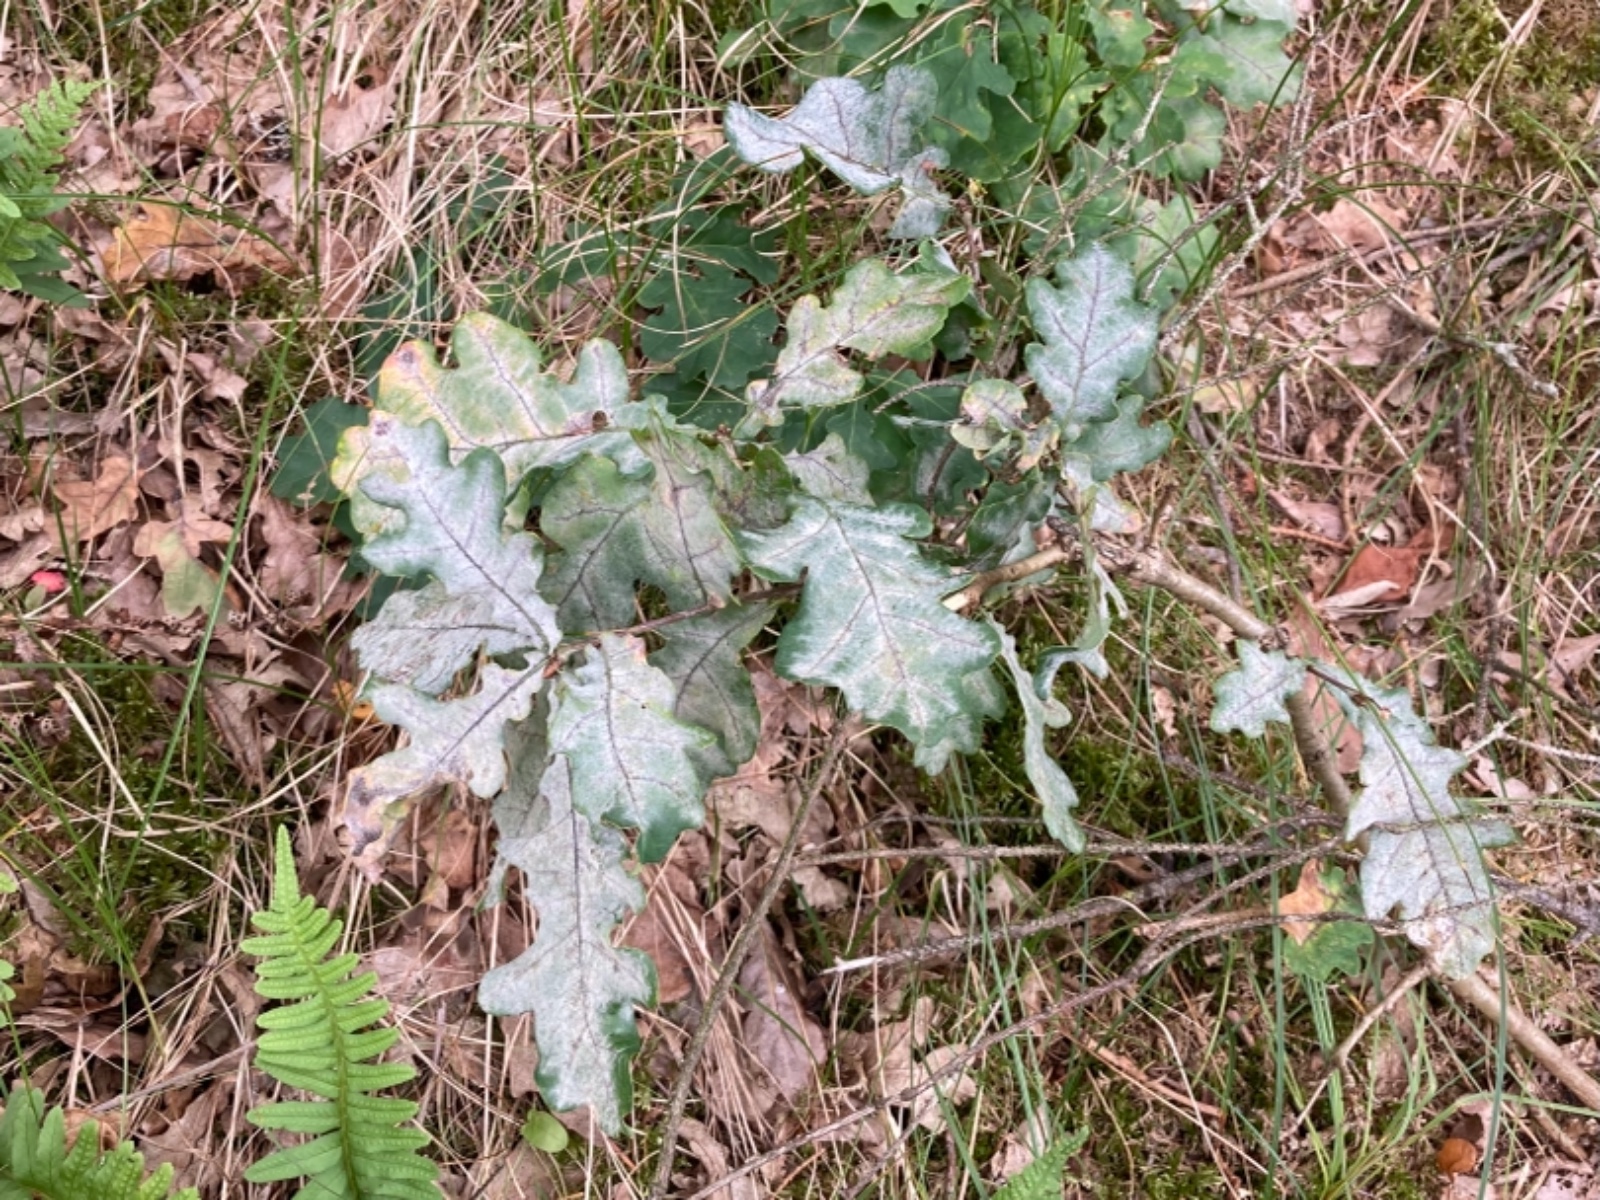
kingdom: Fungi
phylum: Ascomycota
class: Leotiomycetes
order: Helotiales
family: Erysiphaceae
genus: Erysiphe
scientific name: Erysiphe alphitoides
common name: ege-meldug
